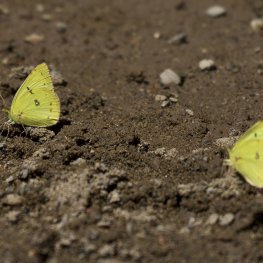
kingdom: Animalia
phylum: Arthropoda
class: Insecta
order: Lepidoptera
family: Pieridae
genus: Colias
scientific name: Colias philodice
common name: Clouded Sulphur
